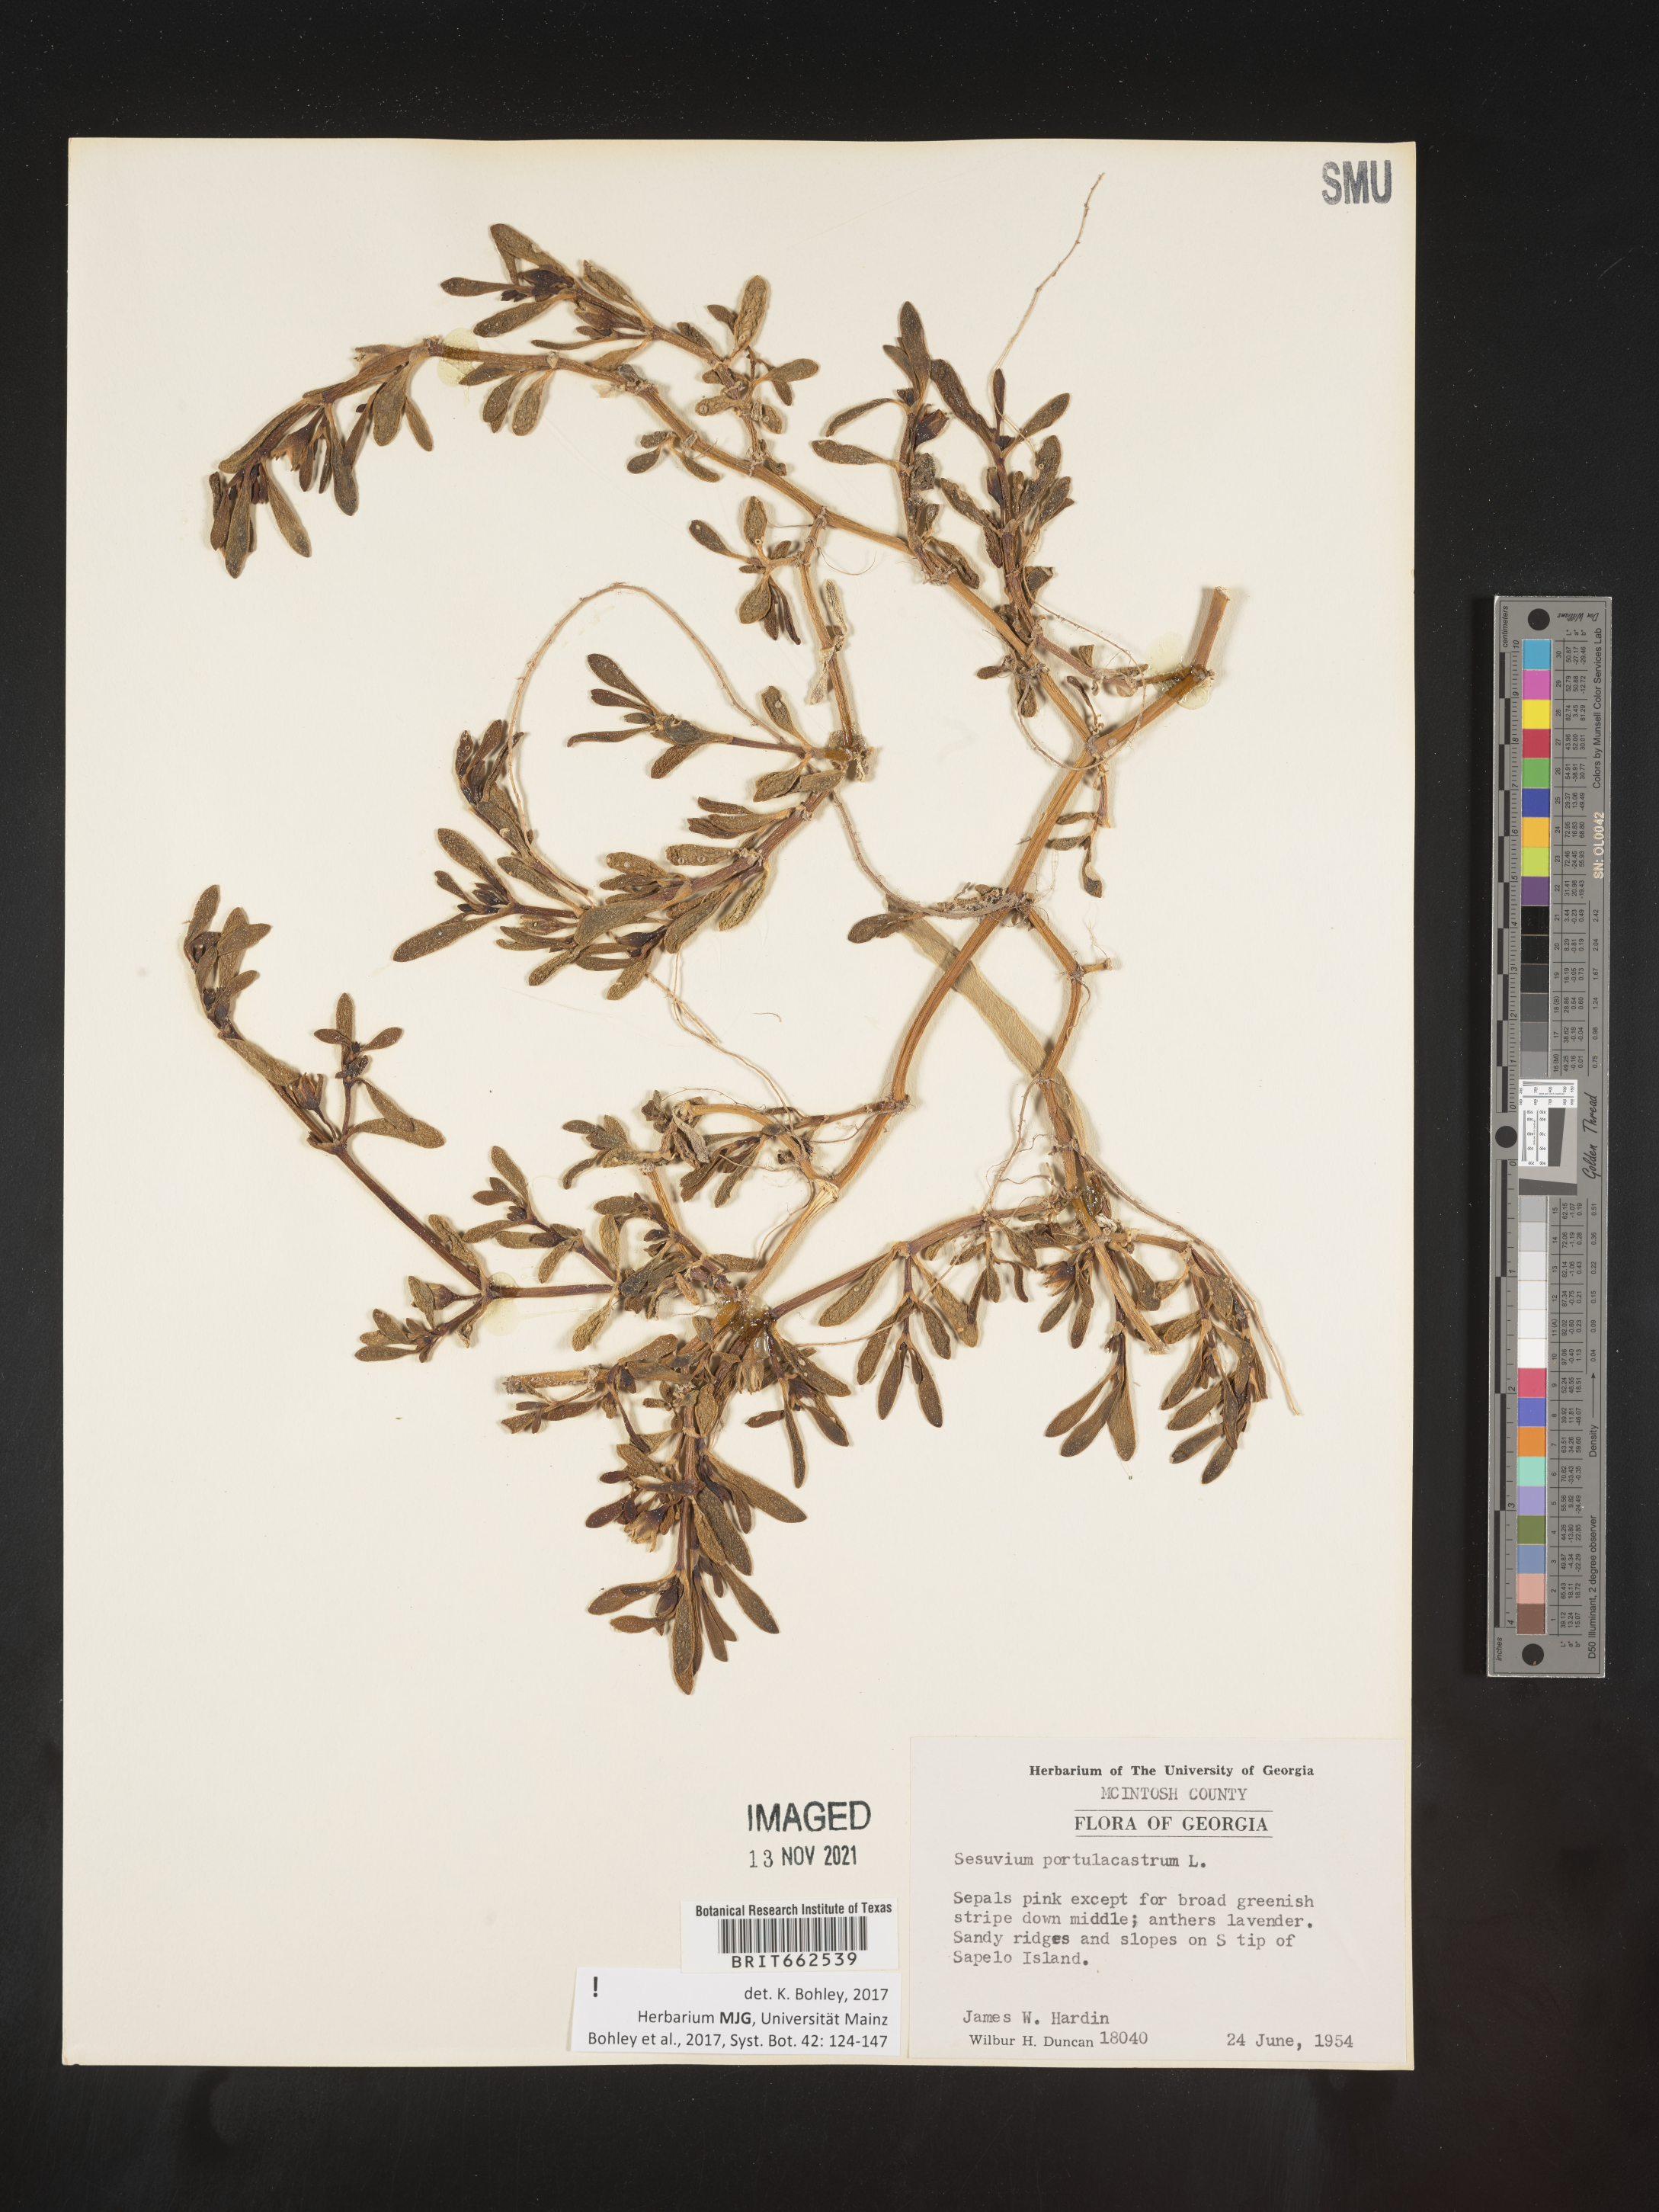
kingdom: Plantae
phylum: Tracheophyta
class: Magnoliopsida
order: Caryophyllales
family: Aizoaceae
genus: Sesuvium
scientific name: Sesuvium portulacastrum
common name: Sea-purslane
